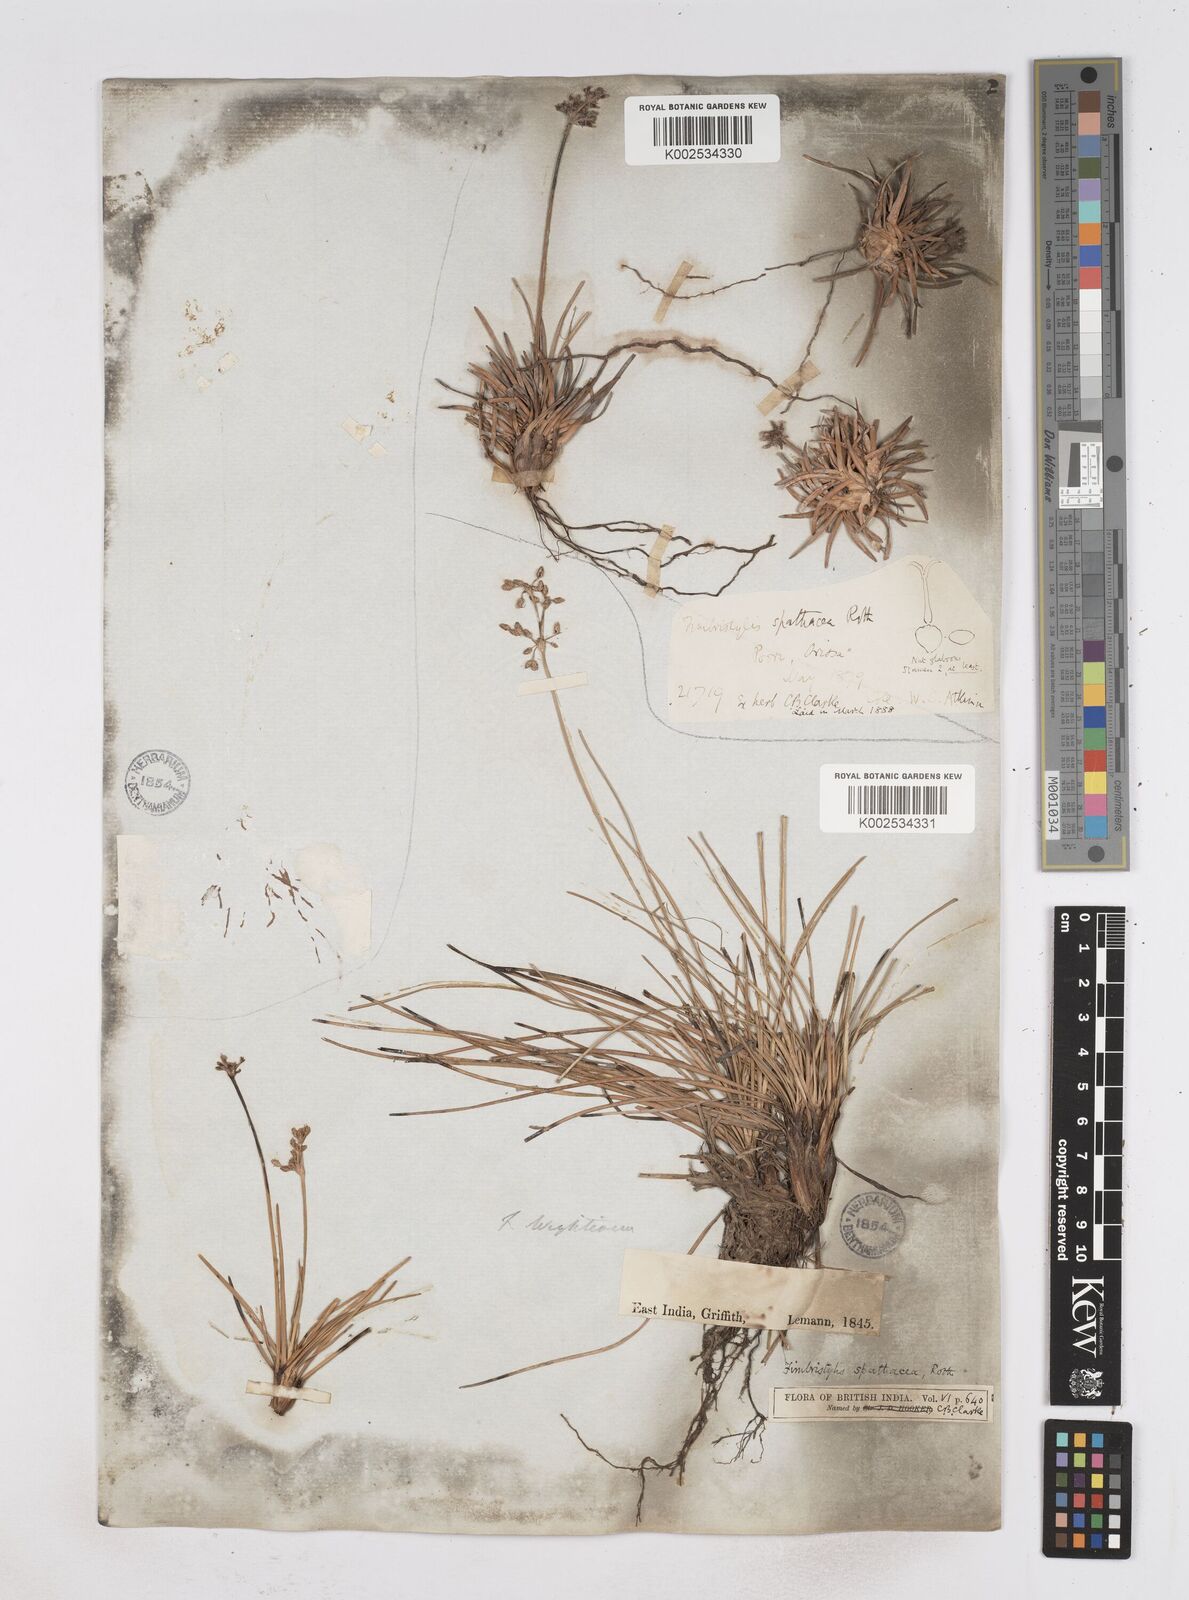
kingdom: Plantae
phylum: Tracheophyta
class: Liliopsida
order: Poales
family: Cyperaceae
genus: Fimbristylis
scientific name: Fimbristylis cymosa
